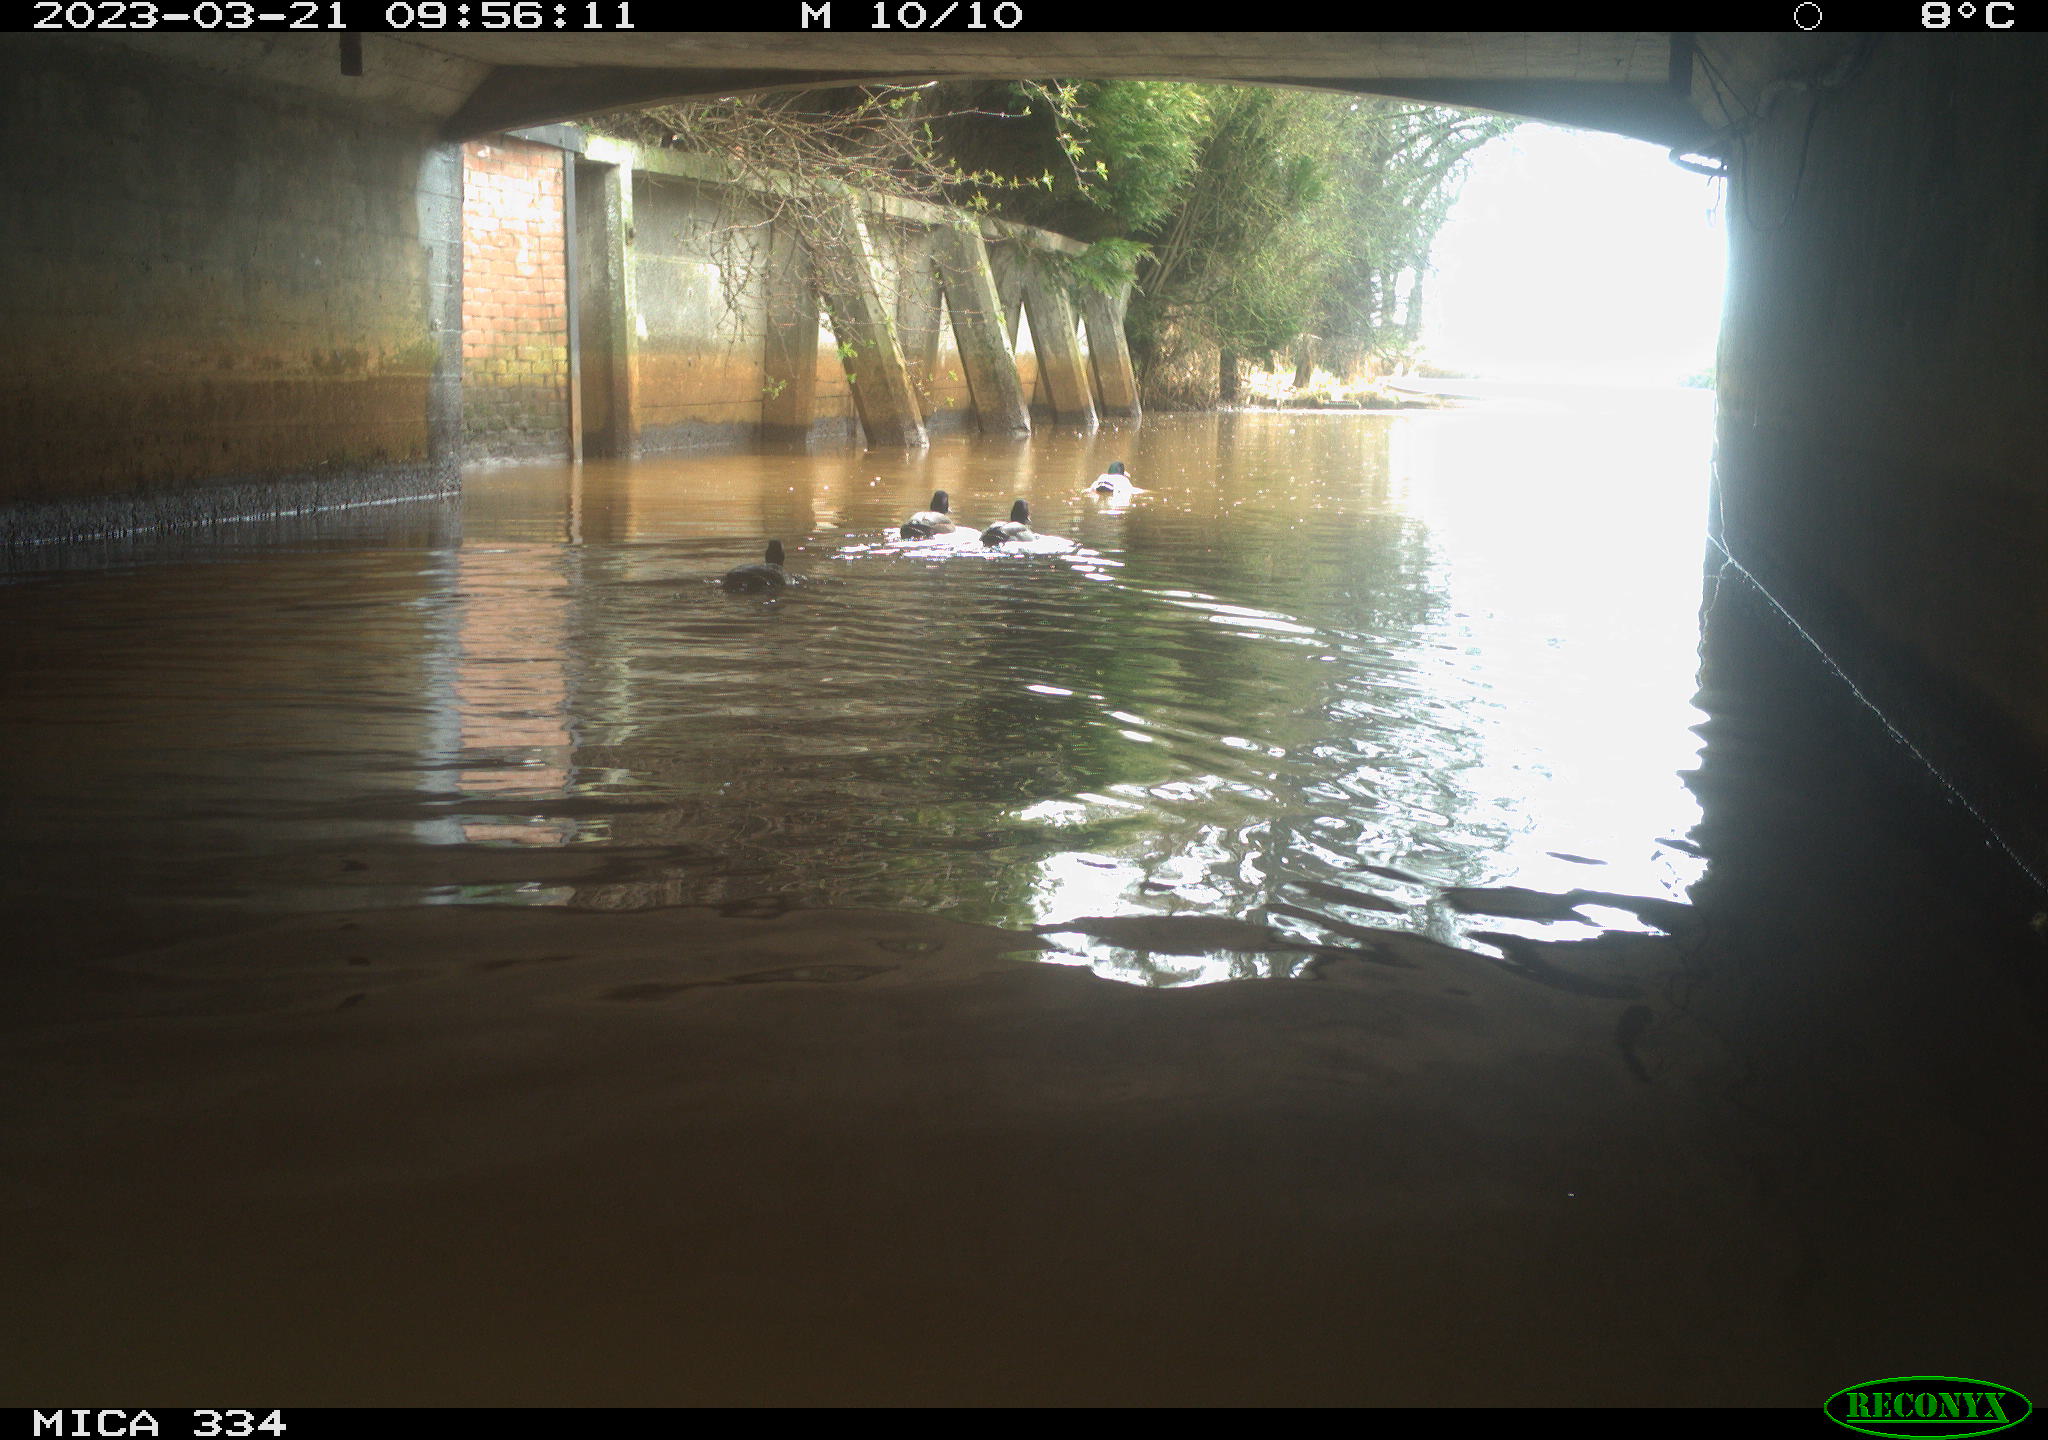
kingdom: Animalia
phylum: Chordata
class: Aves
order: Anseriformes
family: Anatidae
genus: Anas
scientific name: Anas
